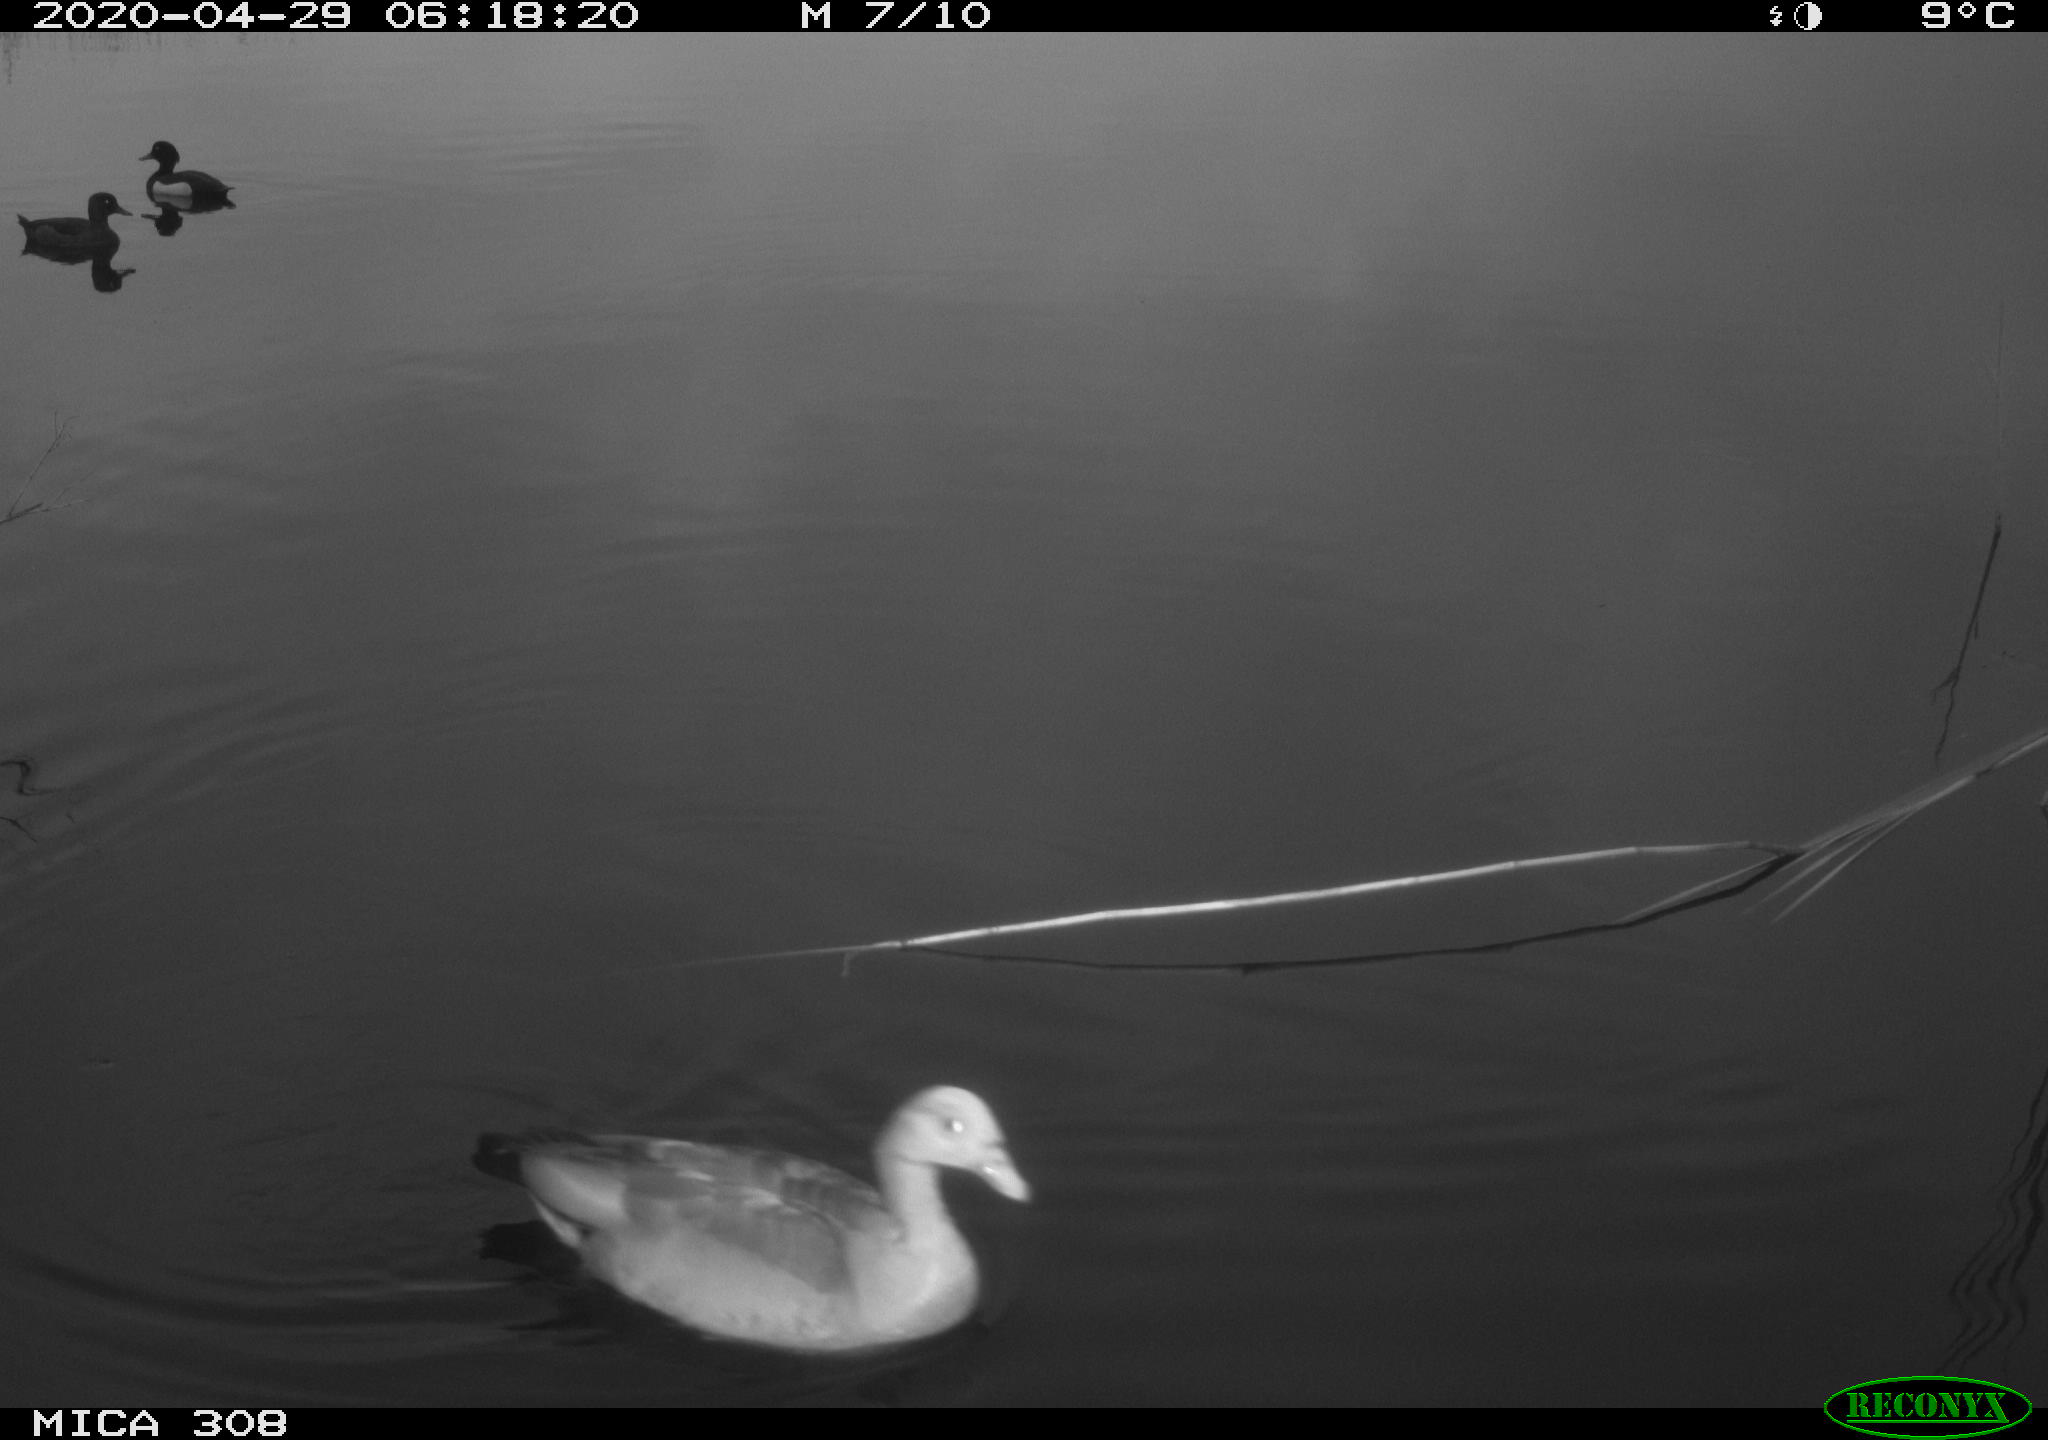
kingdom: Animalia
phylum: Chordata
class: Aves
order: Anseriformes
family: Anatidae
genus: Aythya
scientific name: Aythya fuligula
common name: Tufted duck
